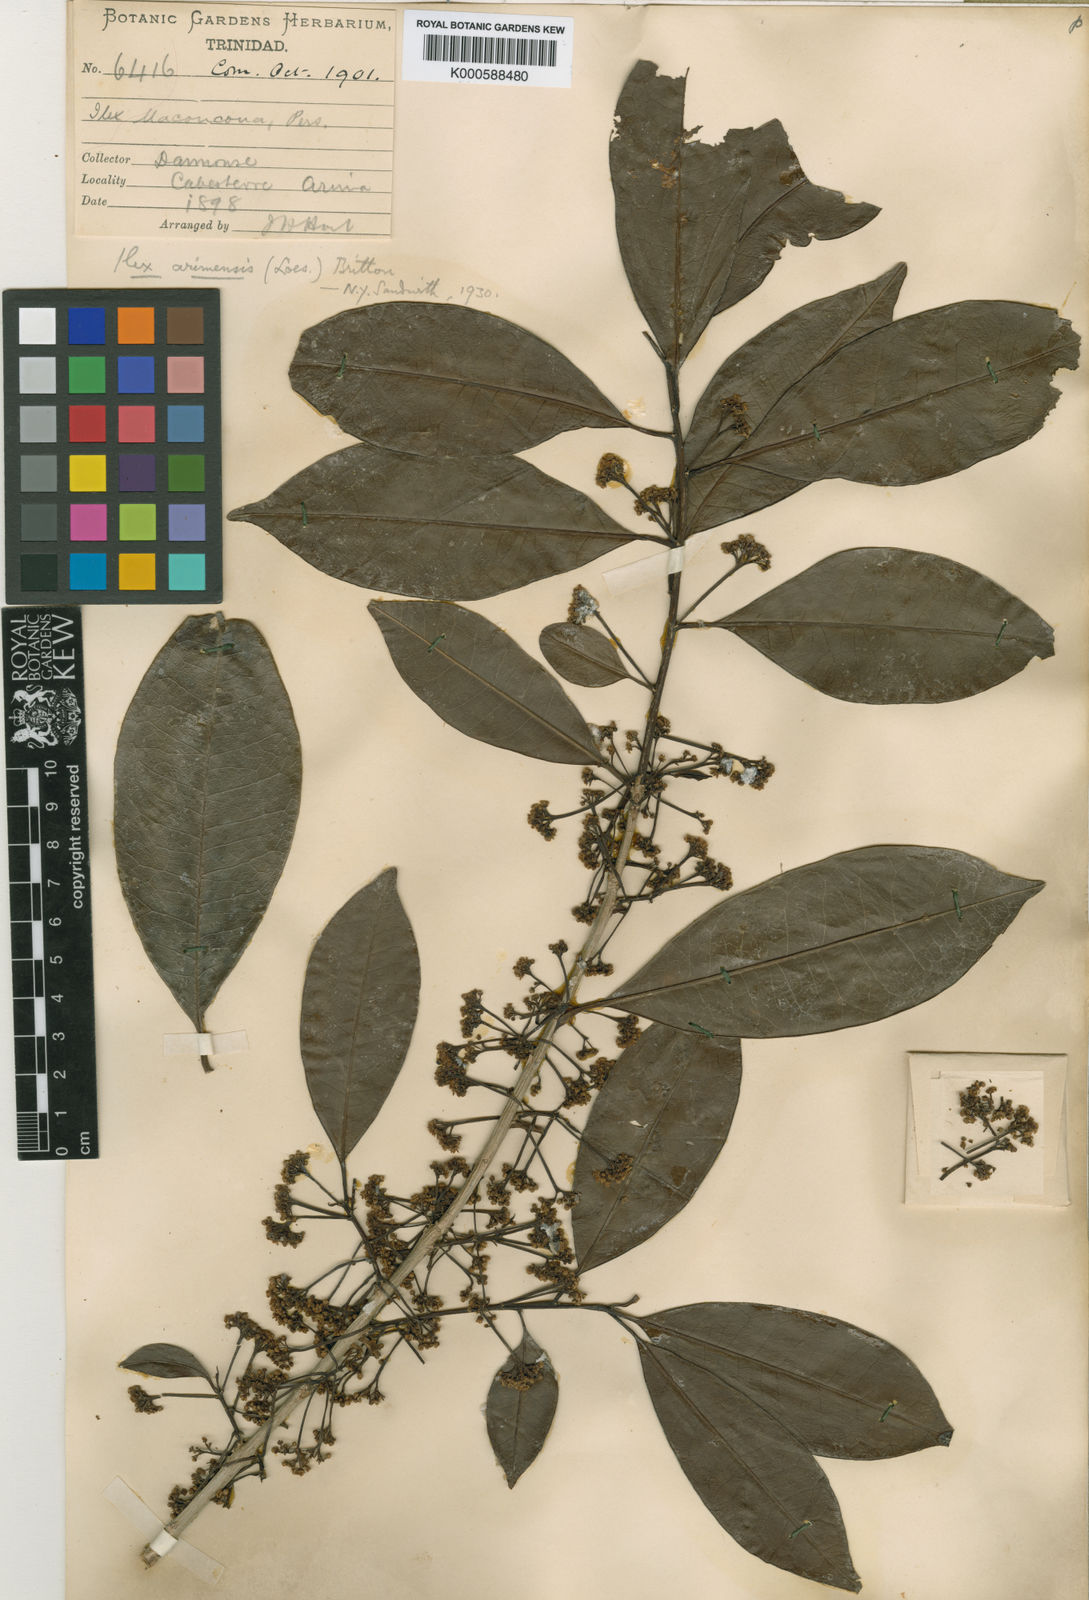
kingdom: Plantae
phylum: Tracheophyta
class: Magnoliopsida
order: Aquifoliales
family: Aquifoliaceae
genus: Ilex
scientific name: Ilex
